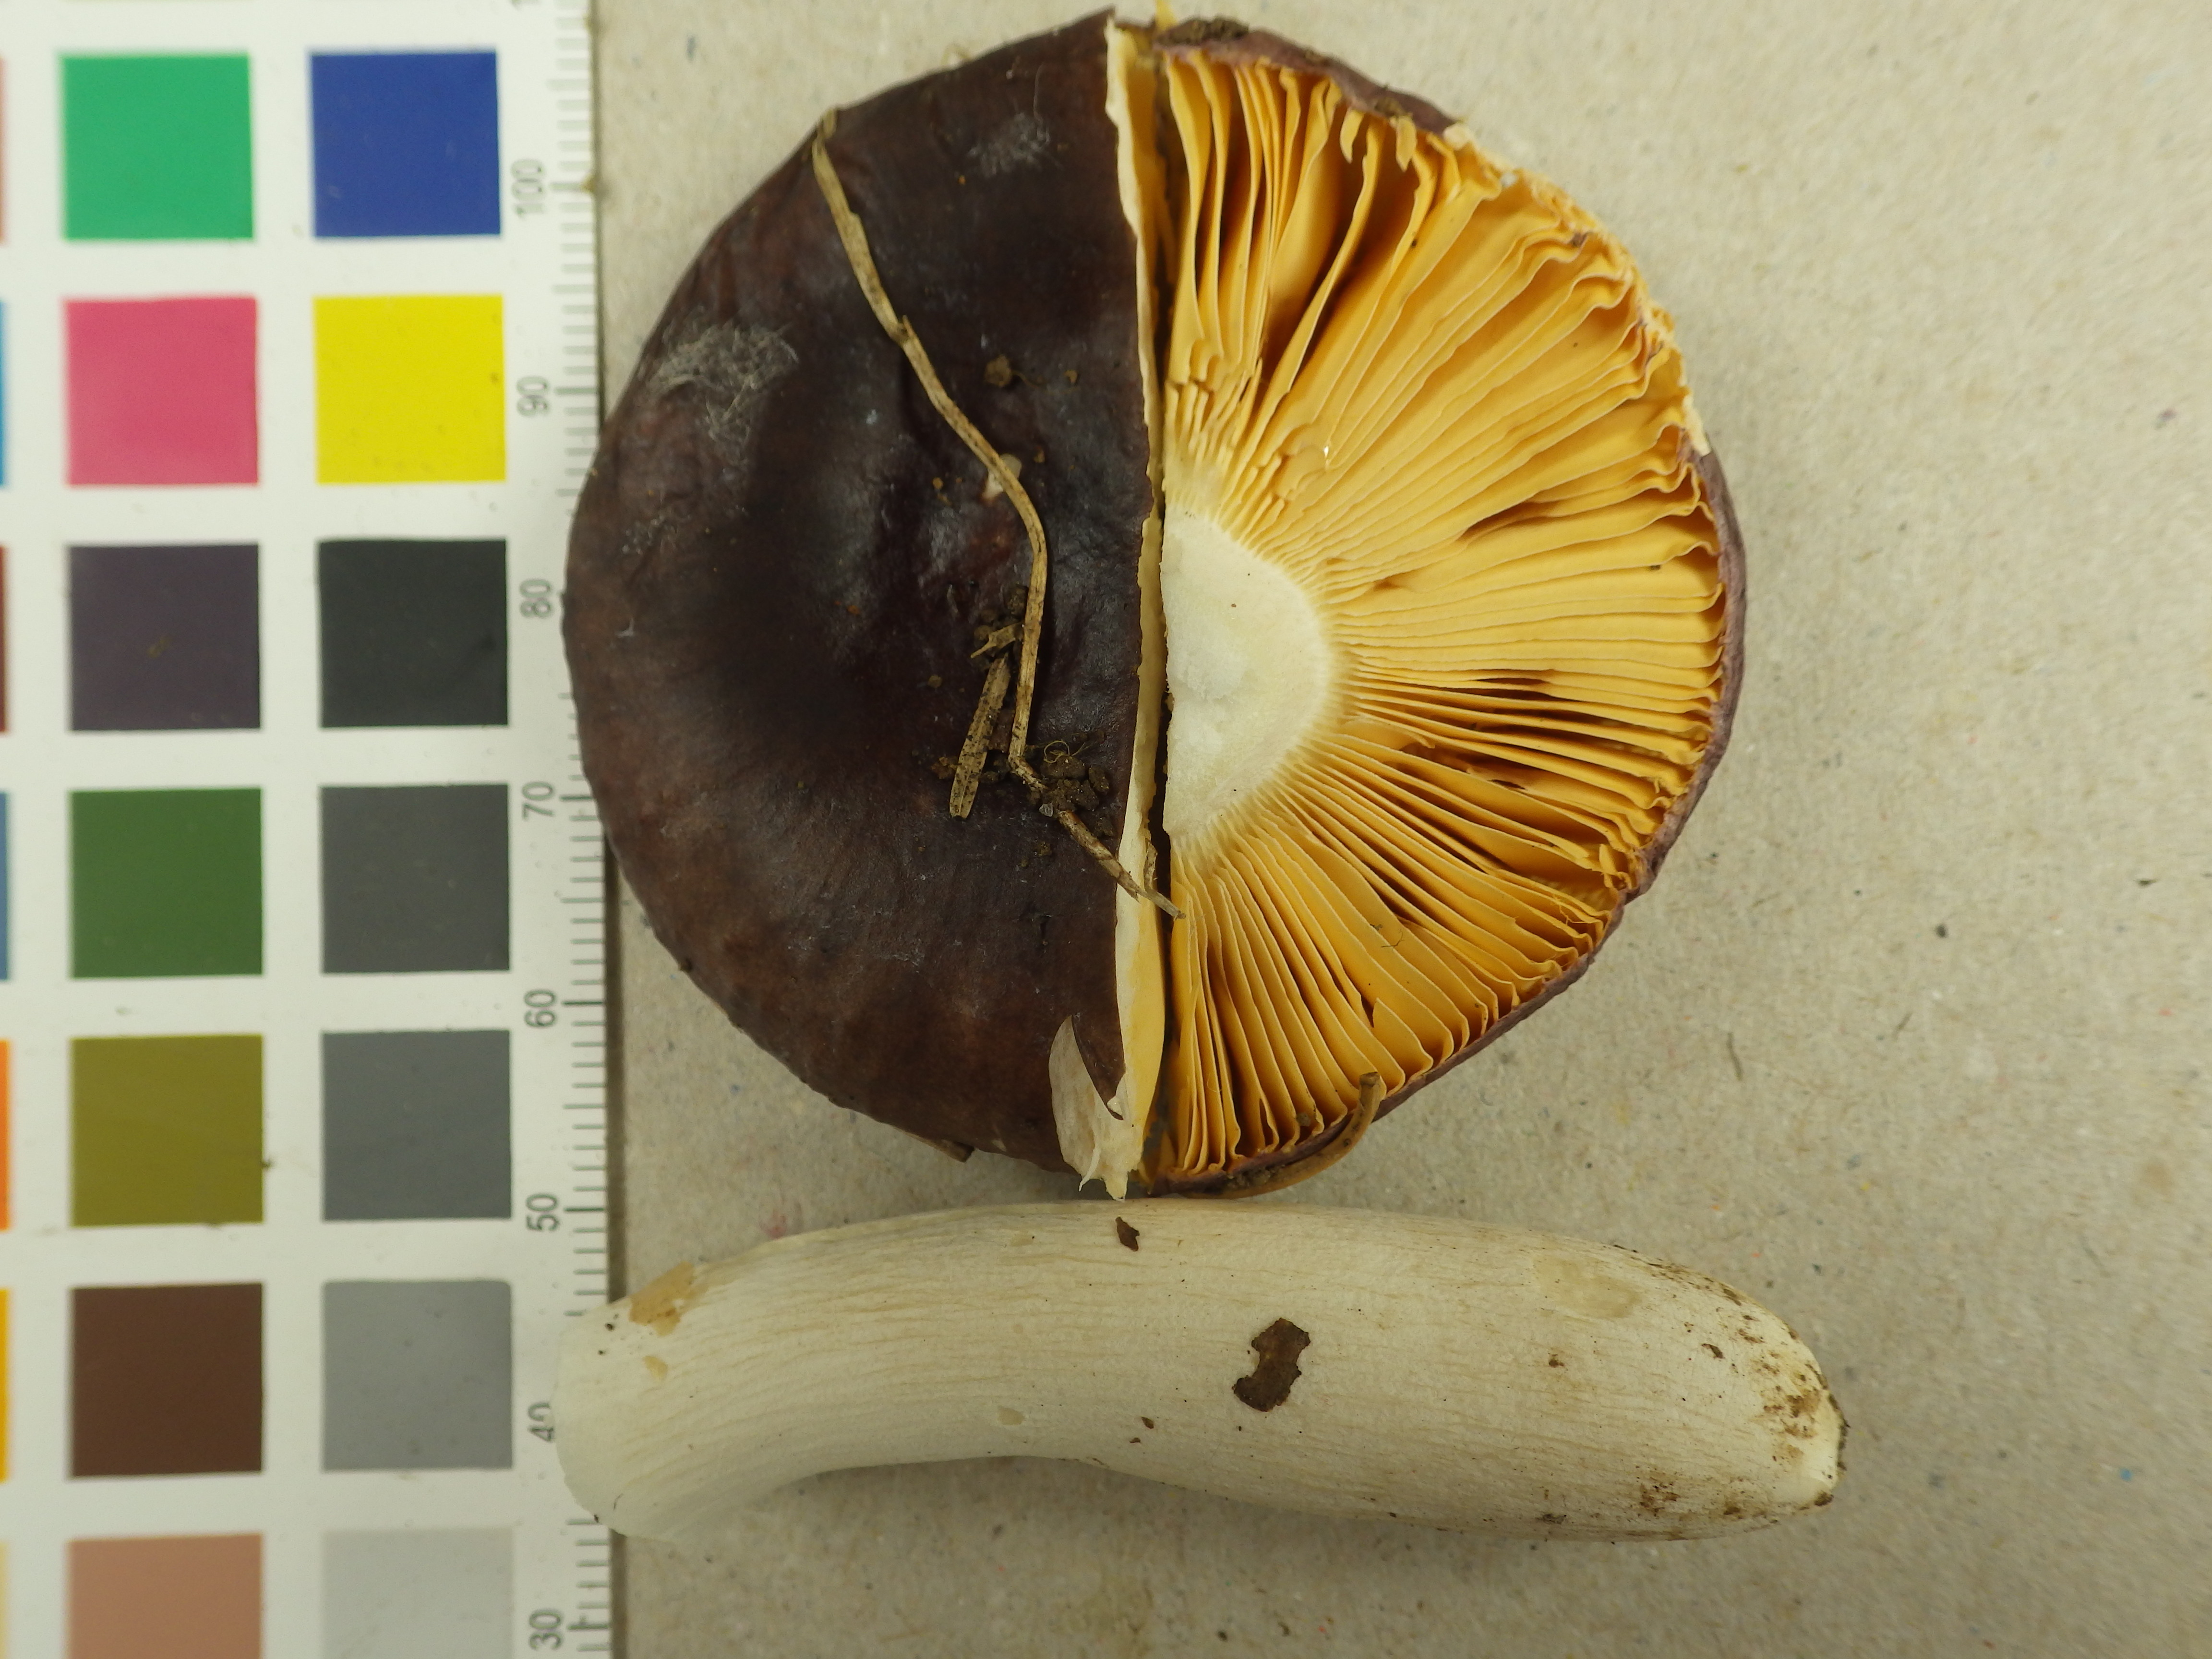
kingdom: Fungi
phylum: Basidiomycota
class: Agaricomycetes
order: Russulales
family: Russulaceae
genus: Russula
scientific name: Russula torulosa
